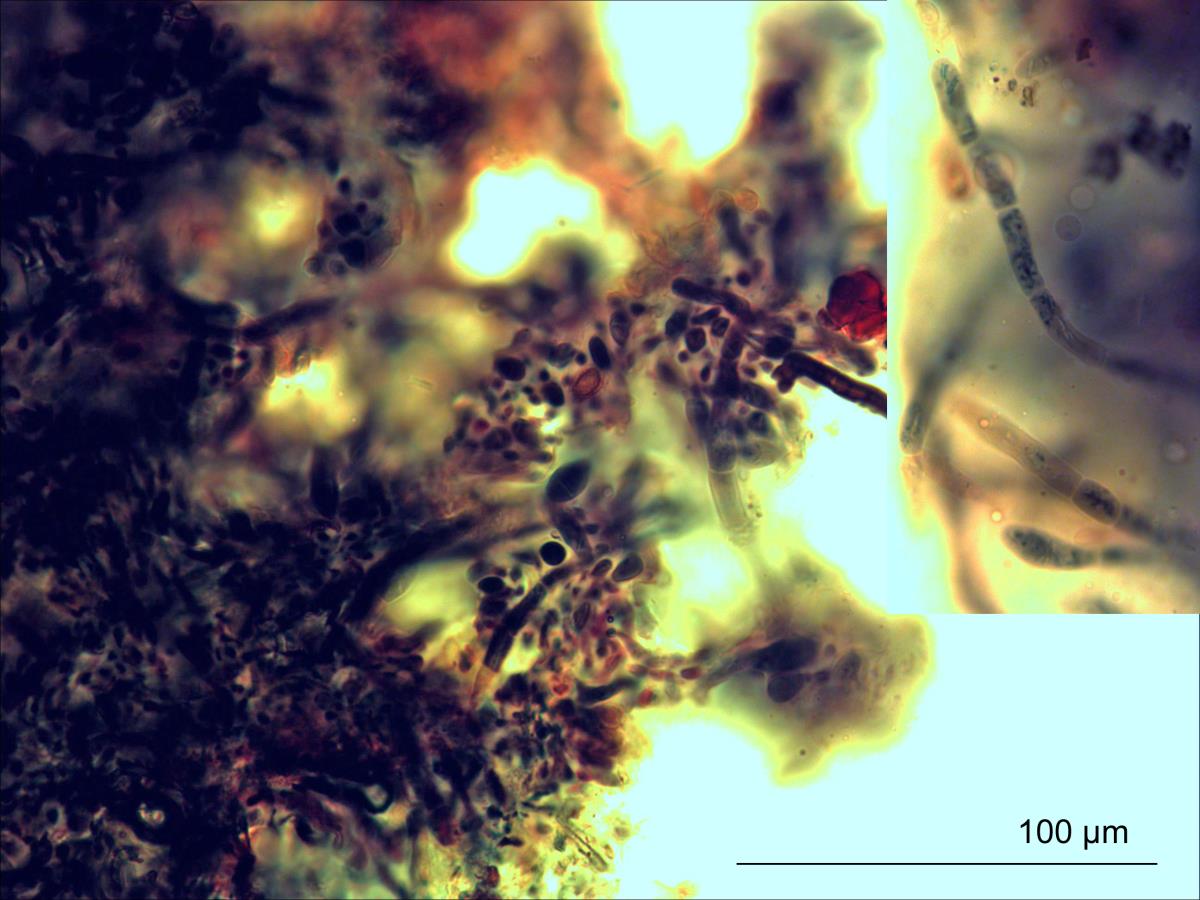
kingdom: Fungi
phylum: Basidiomycota
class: Agaricomycetes
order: Russulales
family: Russulaceae
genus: Russula
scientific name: Russula pilocystidiata
